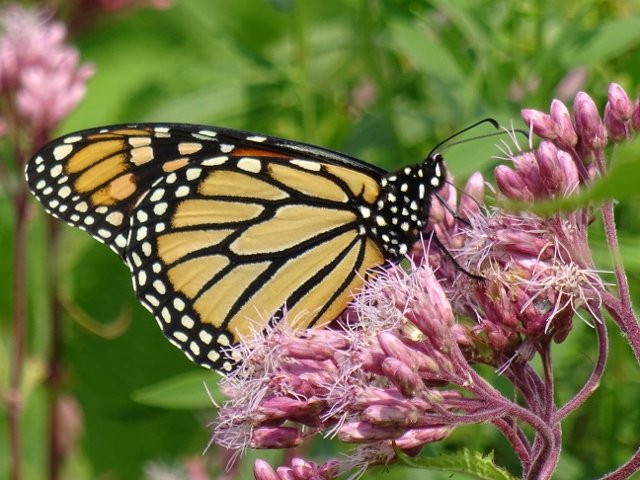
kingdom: Animalia
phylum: Arthropoda
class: Insecta
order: Lepidoptera
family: Nymphalidae
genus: Danaus
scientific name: Danaus plexippus
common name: Monarch
